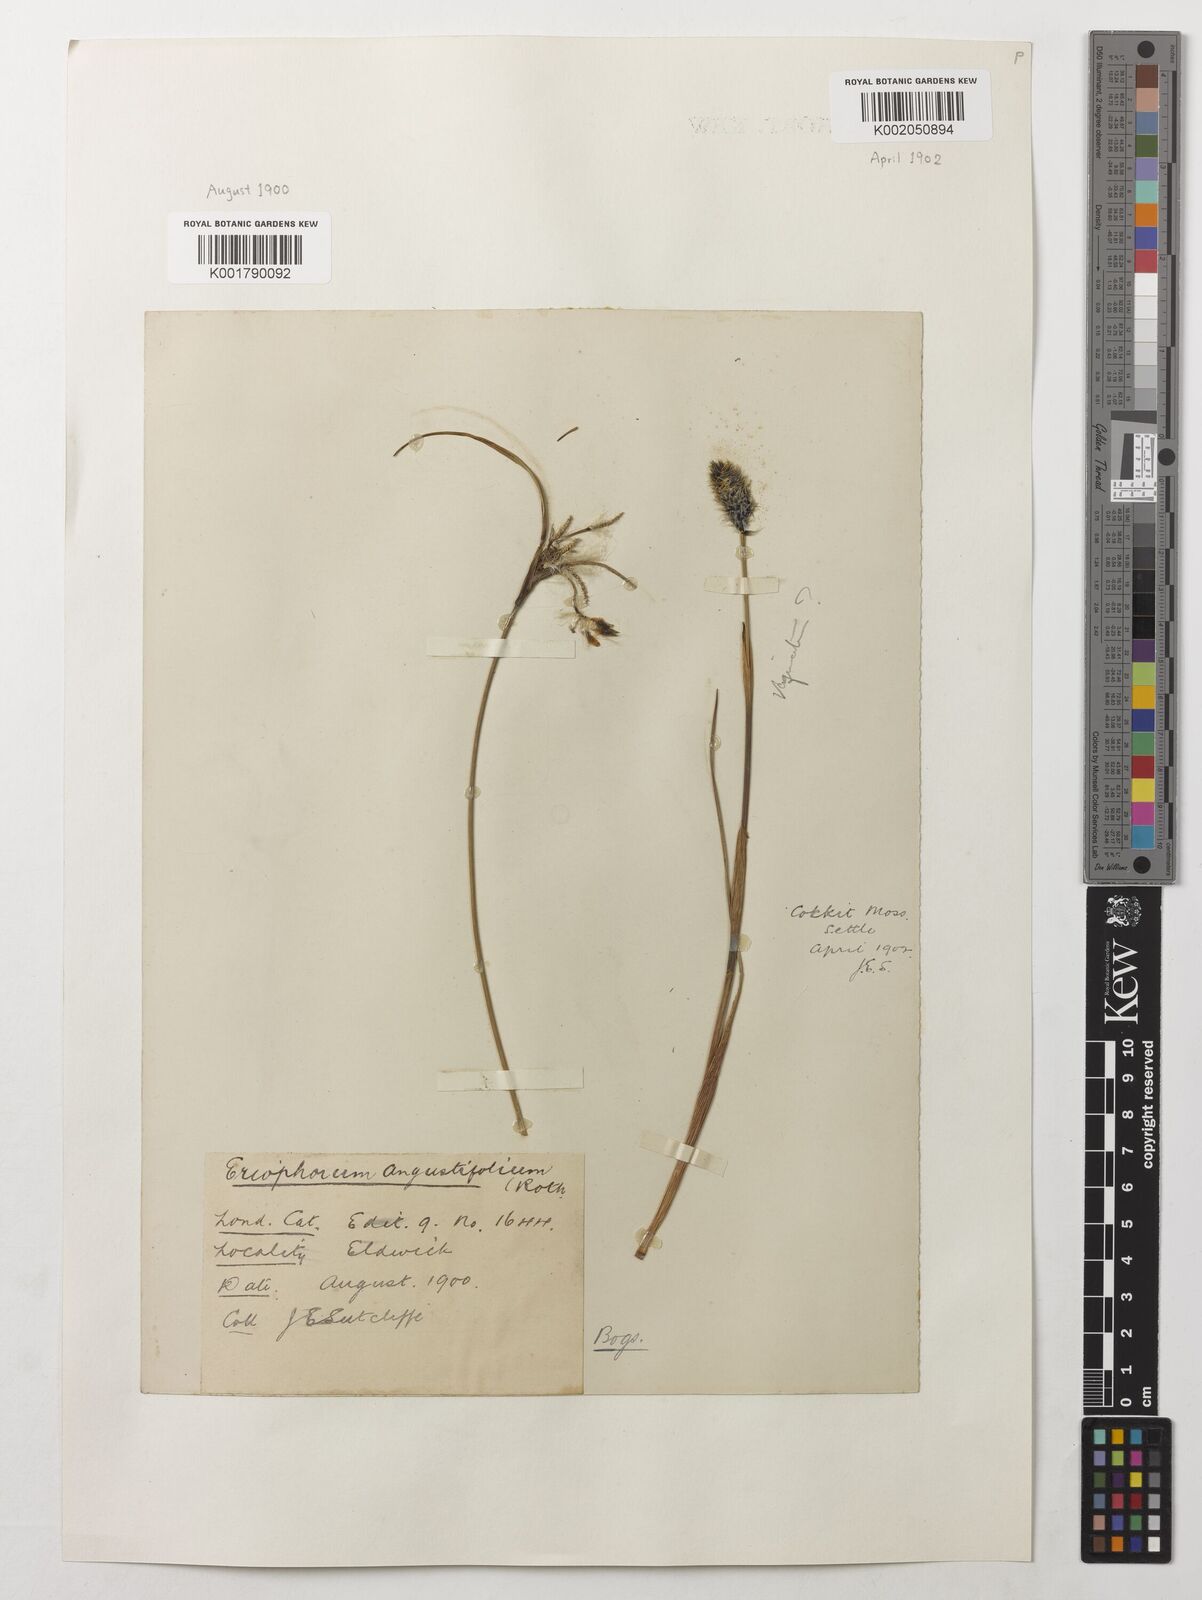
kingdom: Plantae
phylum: Tracheophyta
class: Liliopsida
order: Poales
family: Cyperaceae
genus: Eriophorum
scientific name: Eriophorum angustifolium
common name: Common cottongrass
